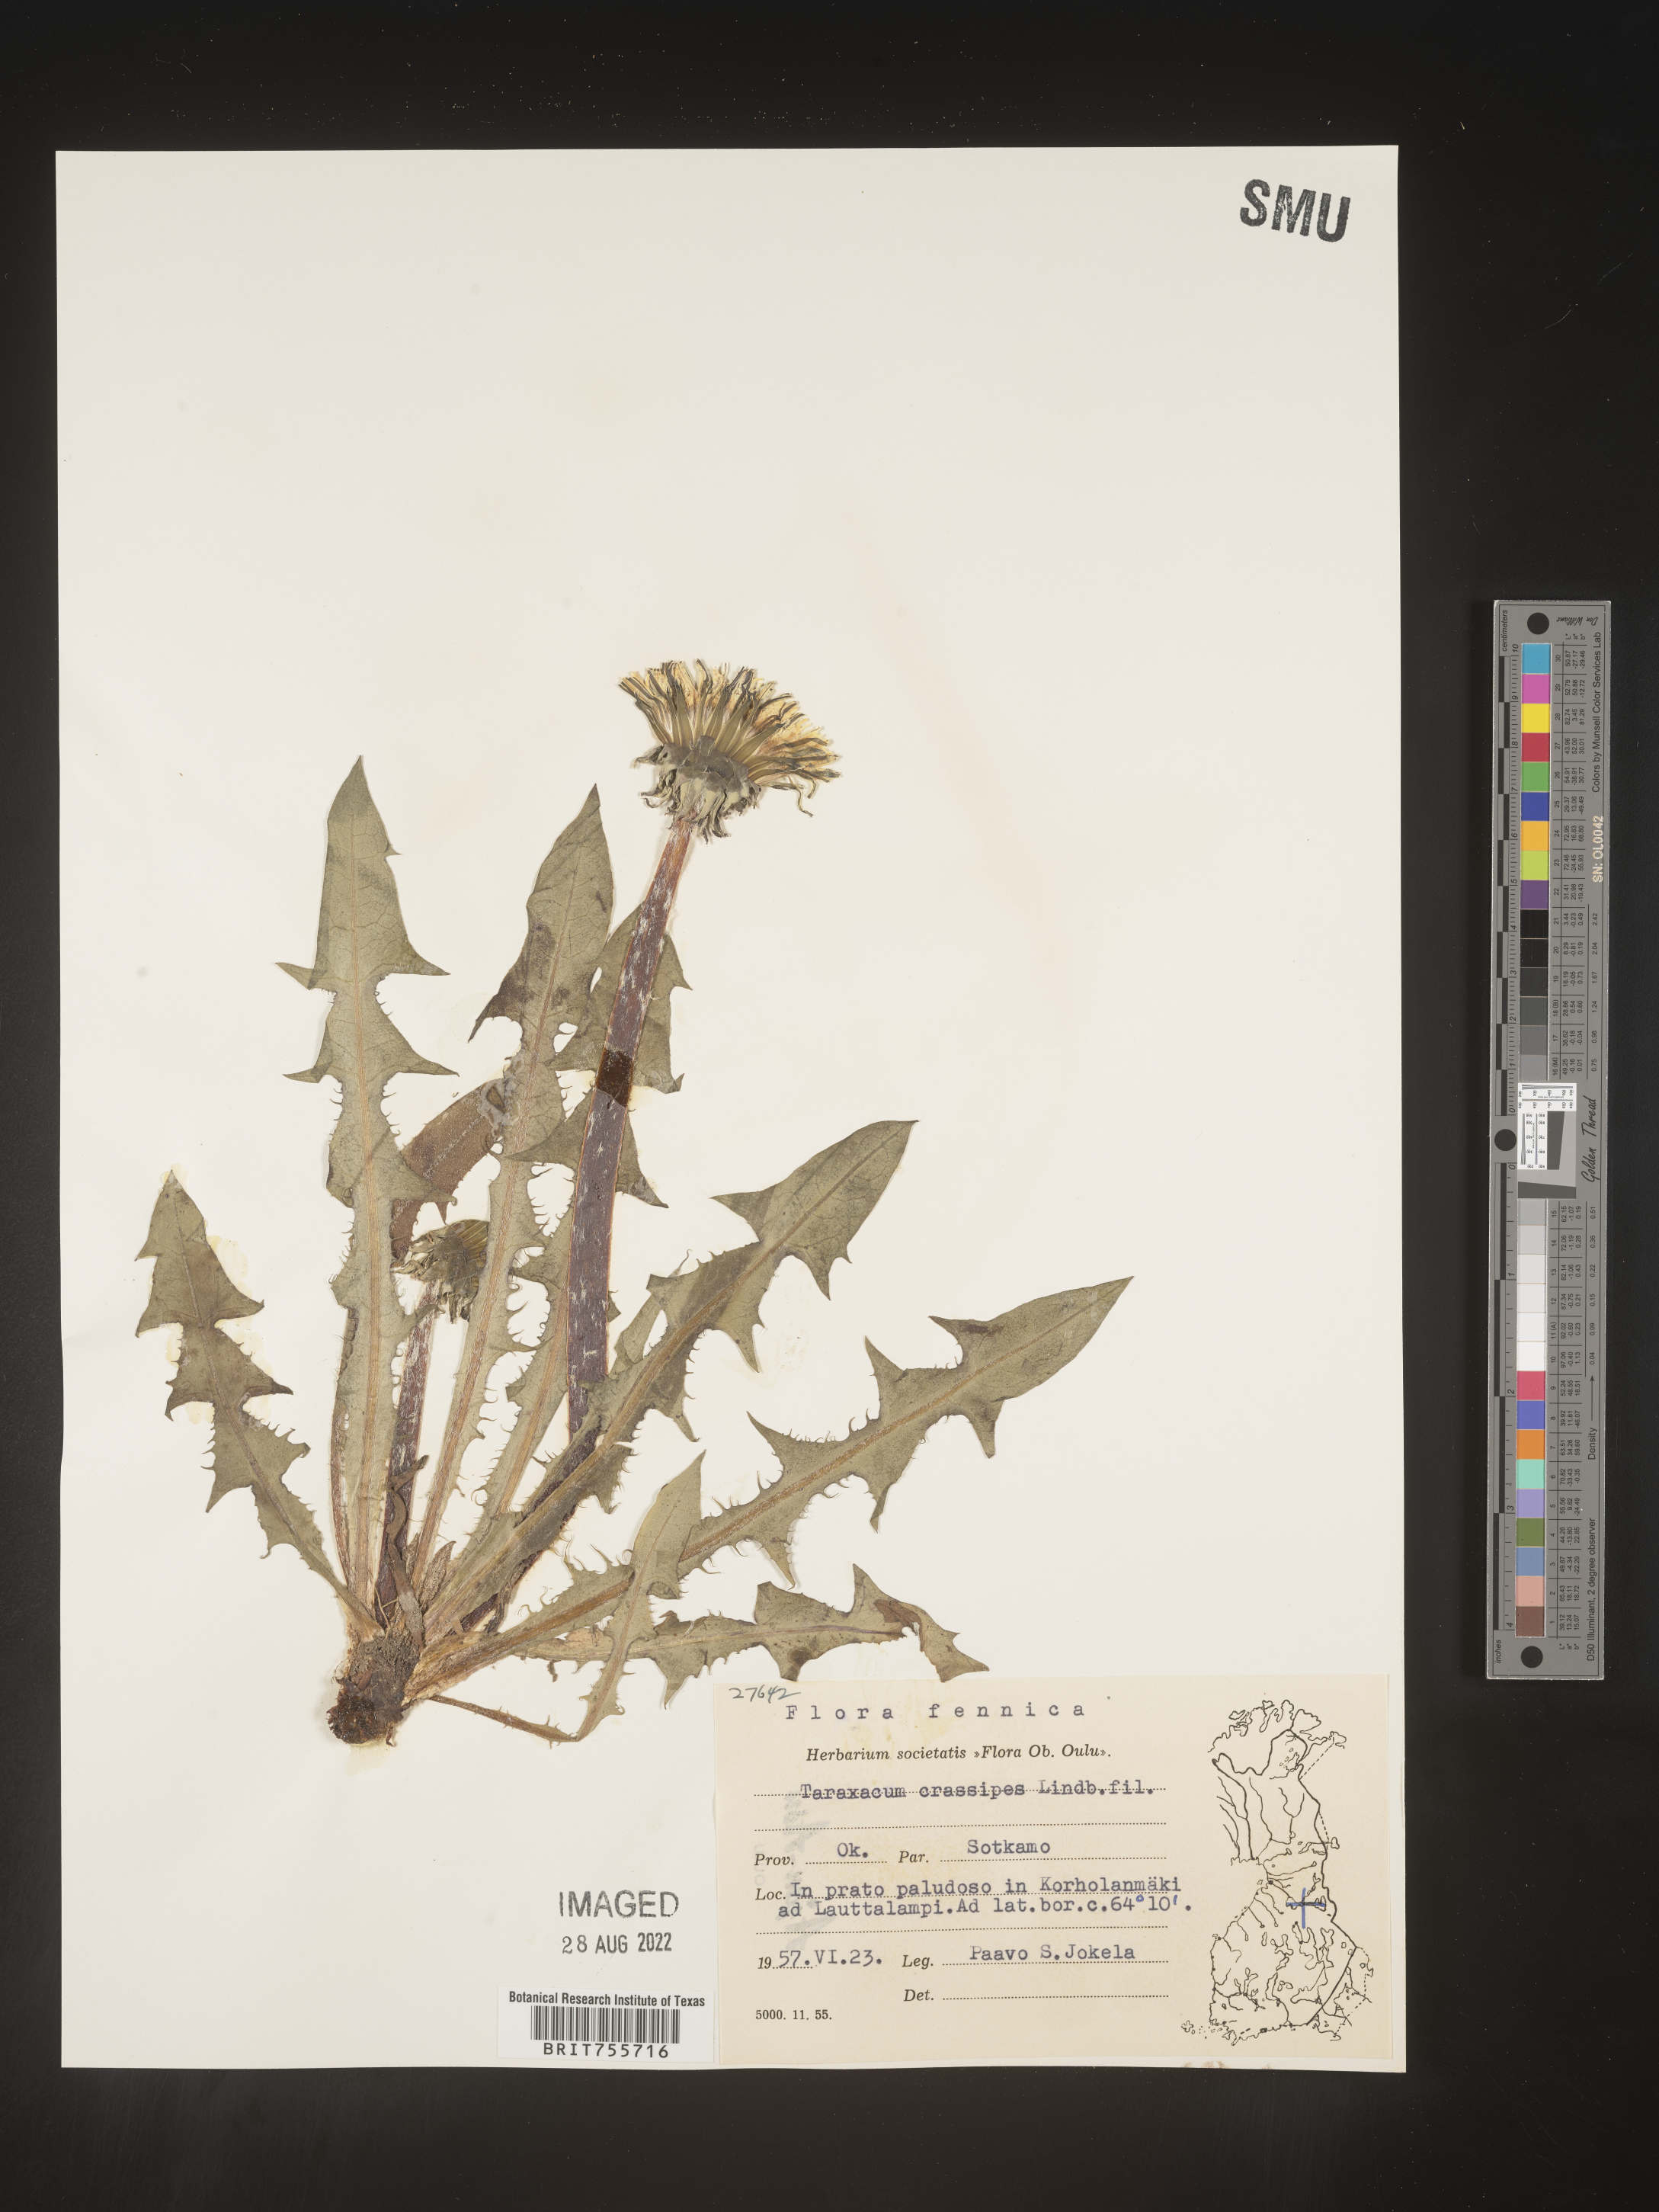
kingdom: Plantae
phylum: Tracheophyta
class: Magnoliopsida
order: Asterales
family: Asteraceae
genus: Taraxacum
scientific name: Taraxacum
